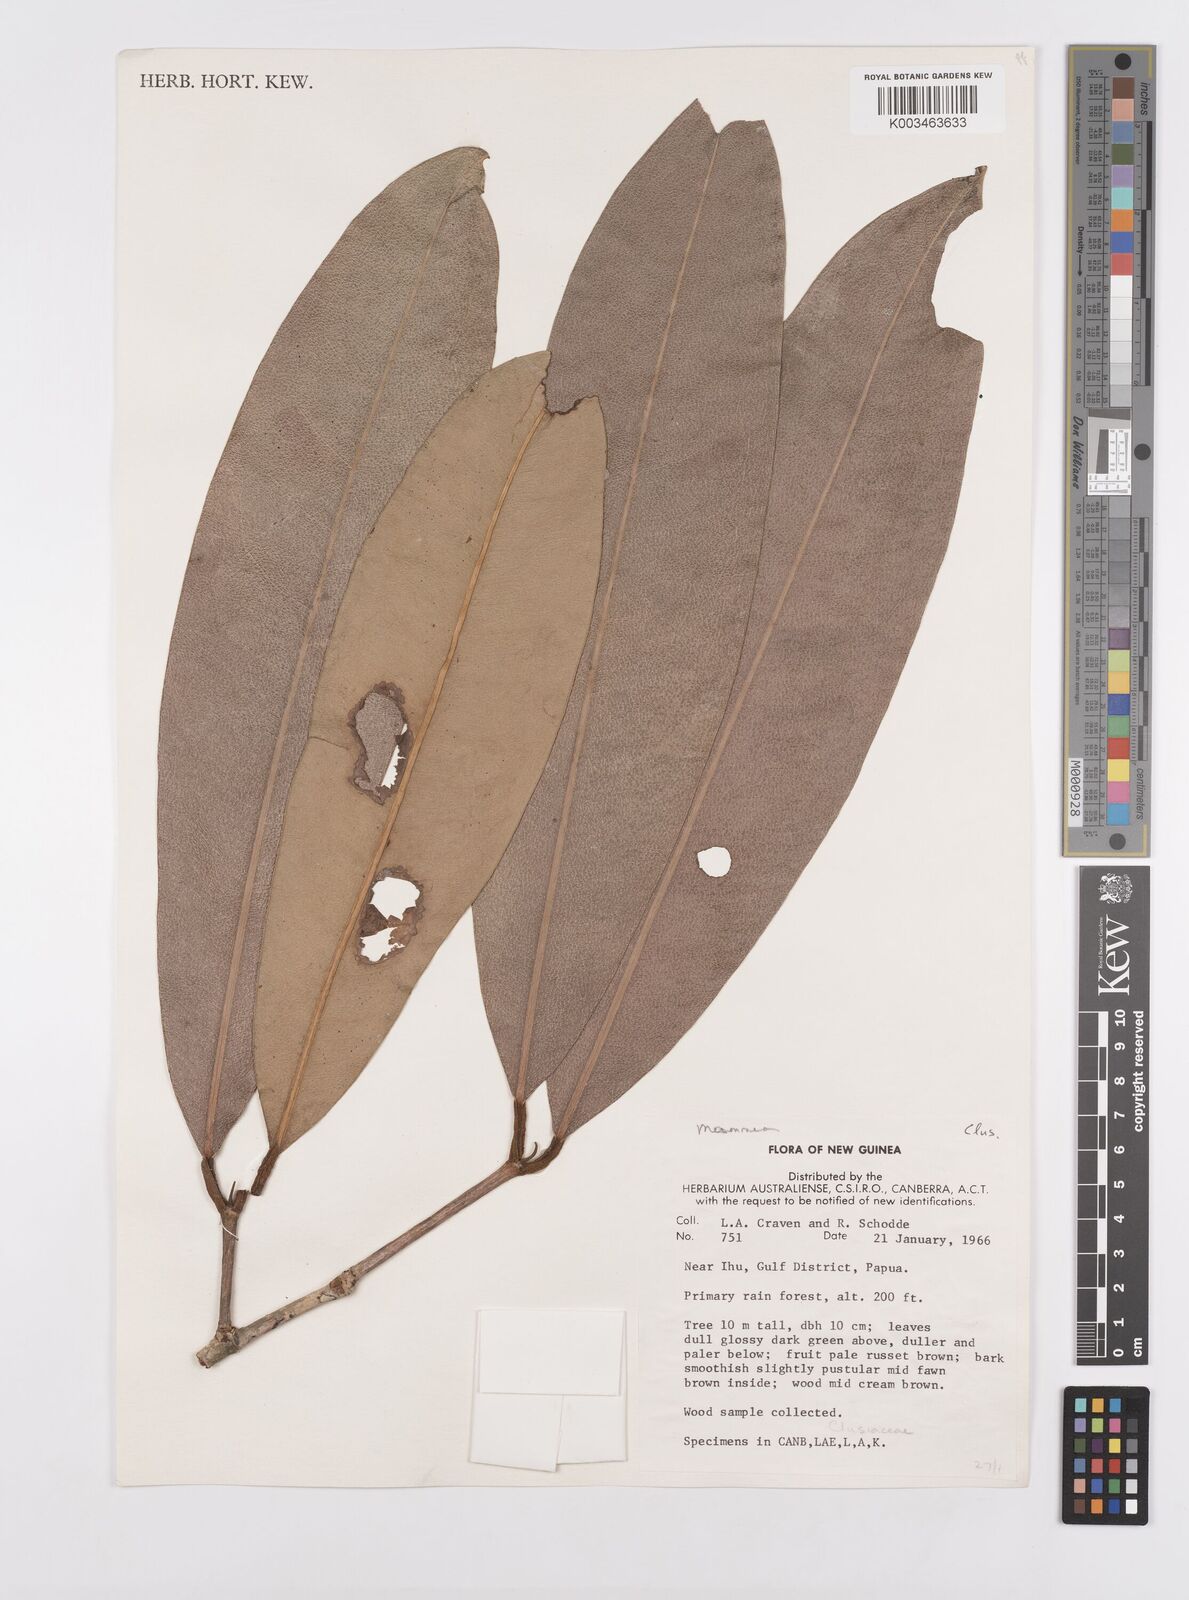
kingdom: Plantae
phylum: Tracheophyta
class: Magnoliopsida
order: Malpighiales
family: Calophyllaceae
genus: Mammea
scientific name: Mammea
